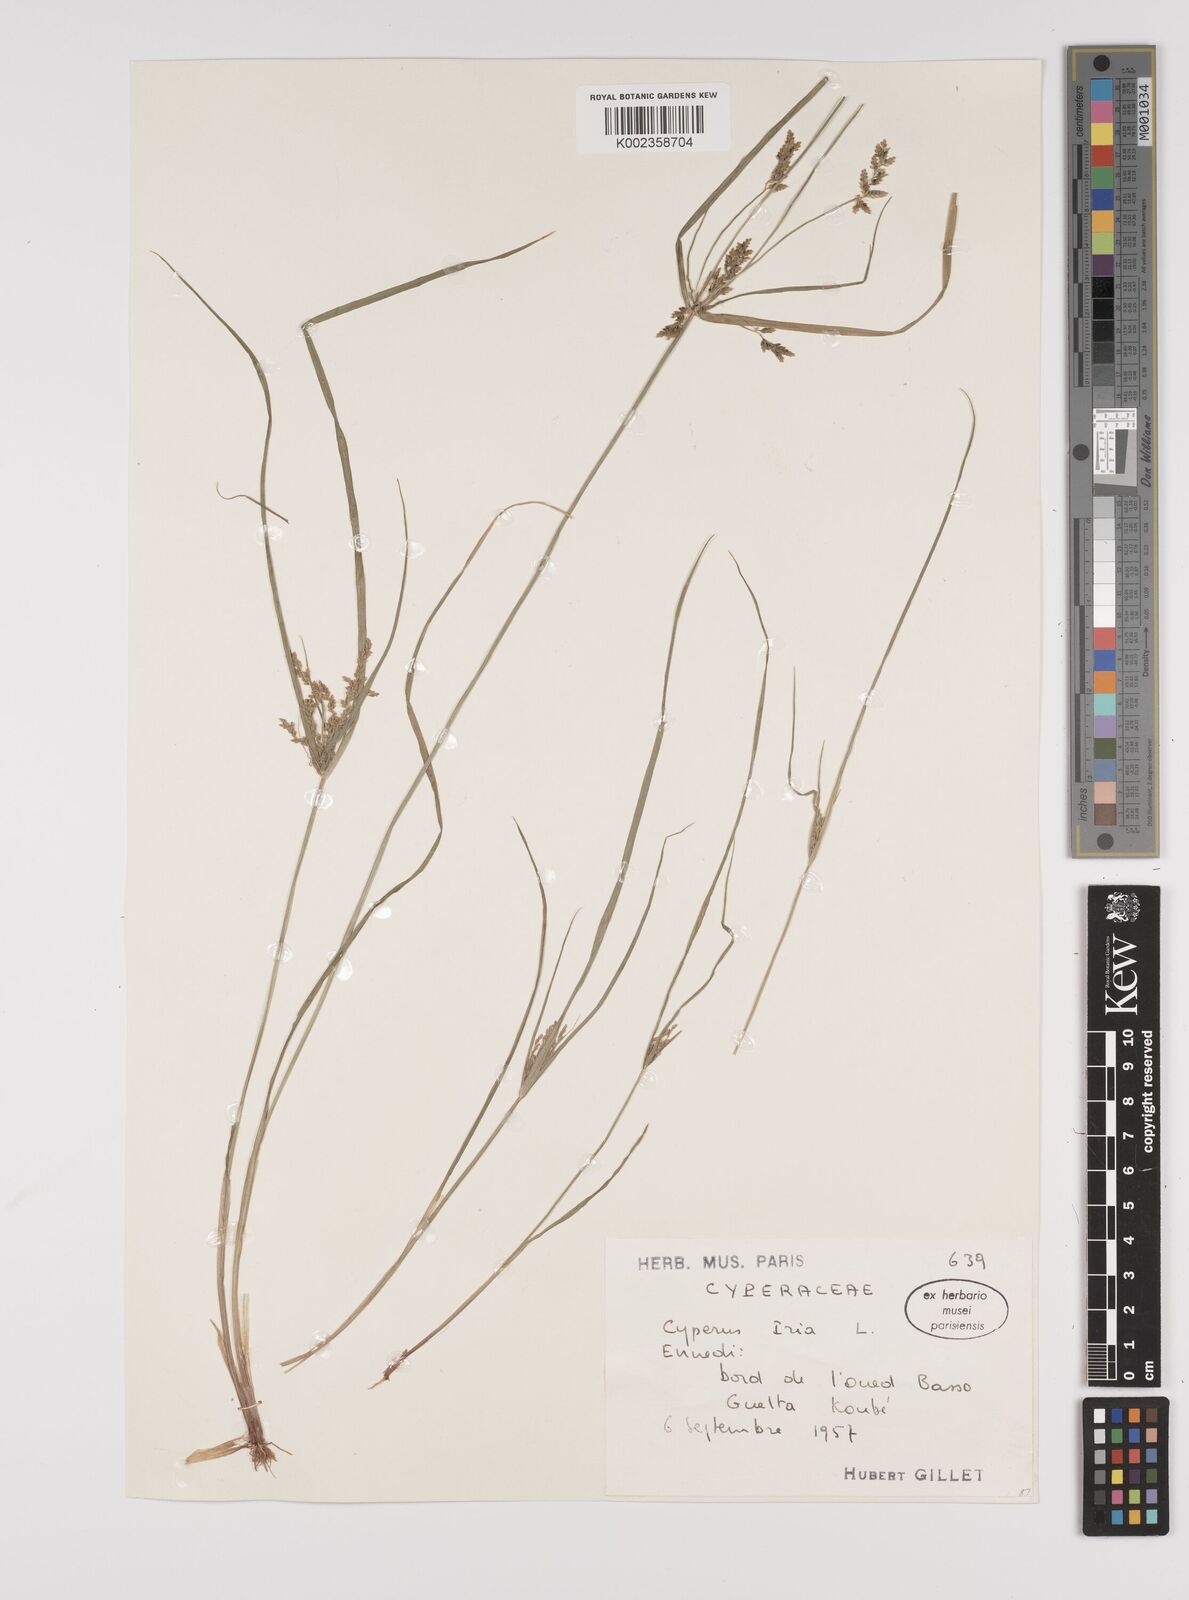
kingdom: Plantae
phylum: Tracheophyta
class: Liliopsida
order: Poales
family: Cyperaceae
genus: Cyperus
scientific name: Cyperus iria
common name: Ricefield flatsedge
